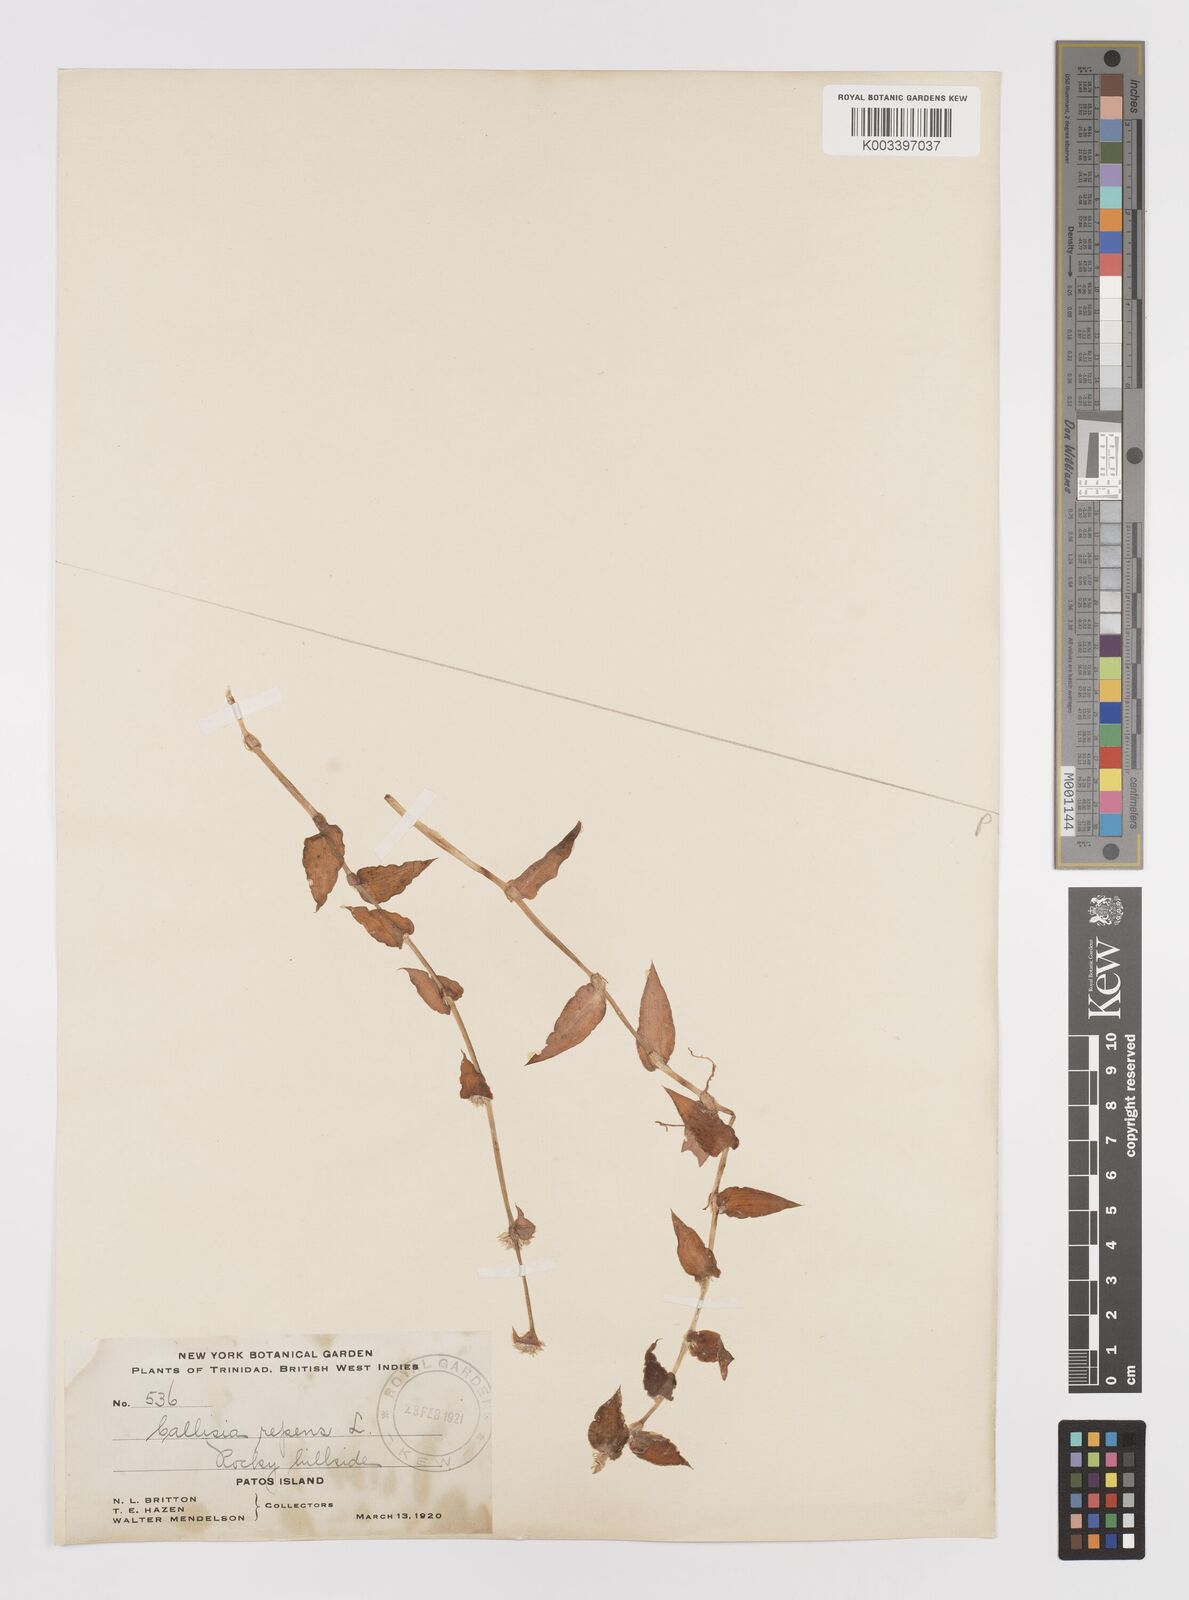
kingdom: Plantae
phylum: Tracheophyta
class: Liliopsida
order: Commelinales
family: Commelinaceae
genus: Callisia
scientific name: Callisia repens
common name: Creeping inchplant
